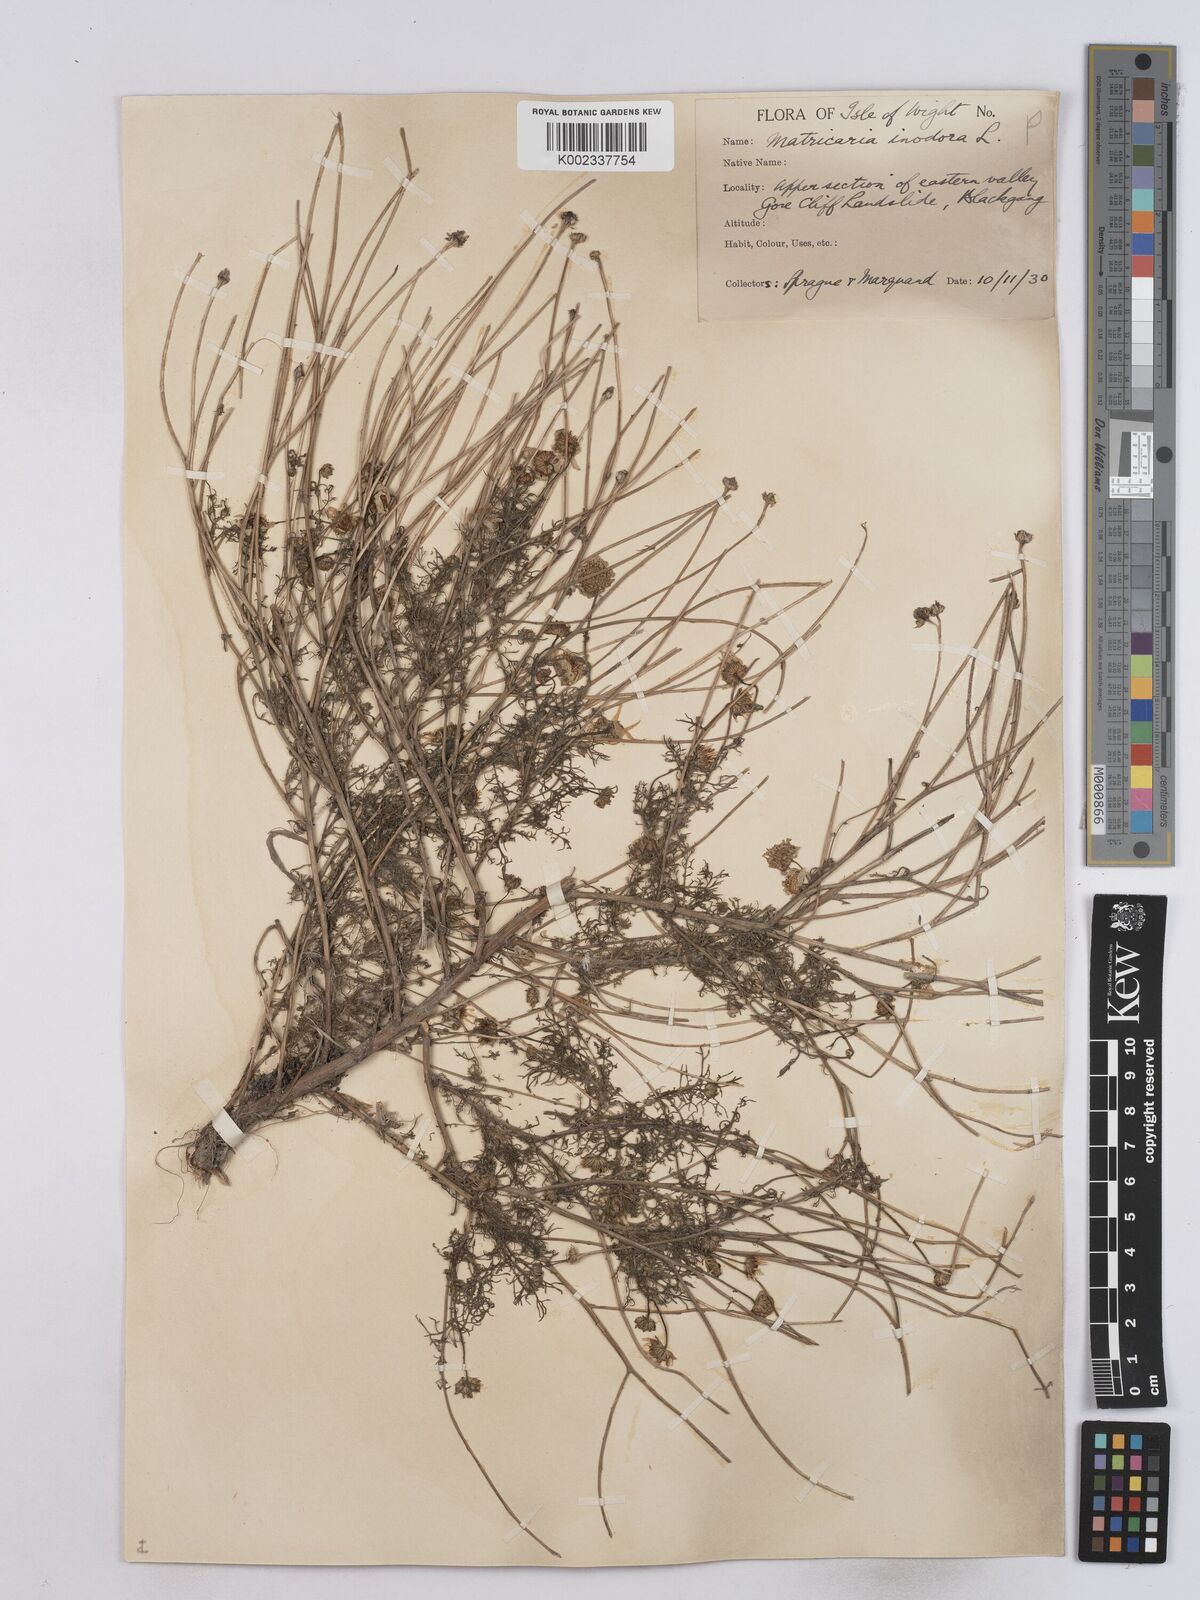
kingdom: Plantae
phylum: Tracheophyta
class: Magnoliopsida
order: Asterales
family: Asteraceae
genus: Matricaria
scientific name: Matricaria
